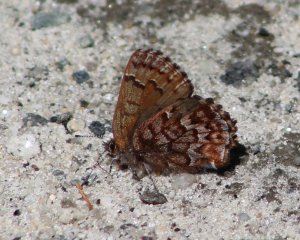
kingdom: Animalia
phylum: Arthropoda
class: Insecta
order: Lepidoptera
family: Lycaenidae
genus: Incisalia
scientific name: Incisalia niphon
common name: Eastern Pine Elfin
